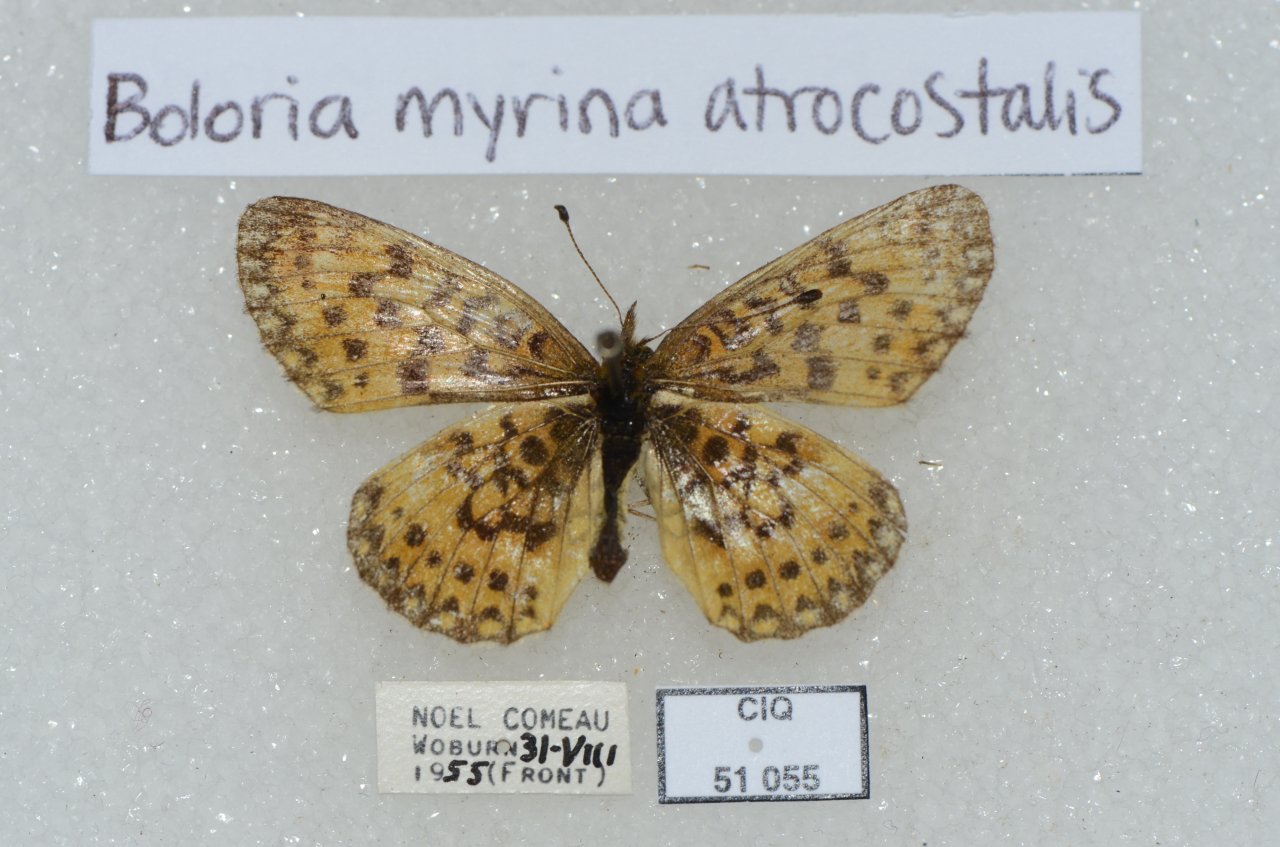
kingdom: Animalia
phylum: Arthropoda
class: Insecta
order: Lepidoptera
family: Nymphalidae
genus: Boloria
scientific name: Boloria selene
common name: Silver-bordered Fritillary
